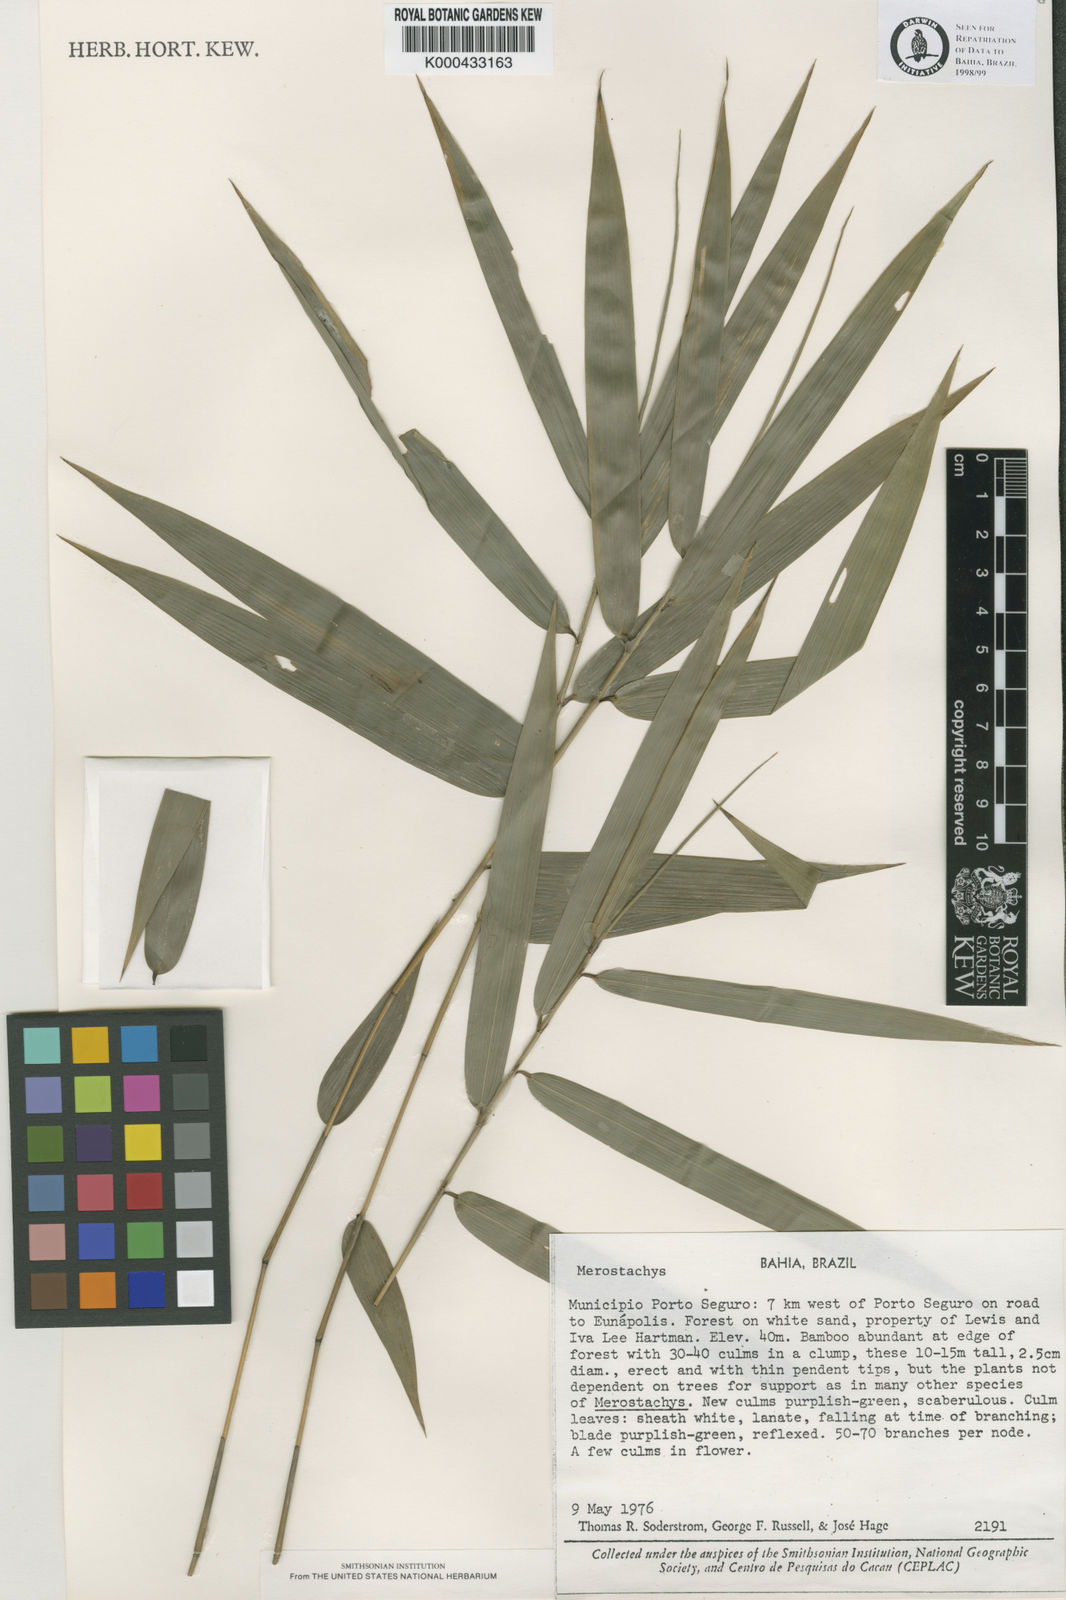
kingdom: Plantae
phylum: Tracheophyta
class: Liliopsida
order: Poales
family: Poaceae
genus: Merostachys
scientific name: Merostachys lanata
